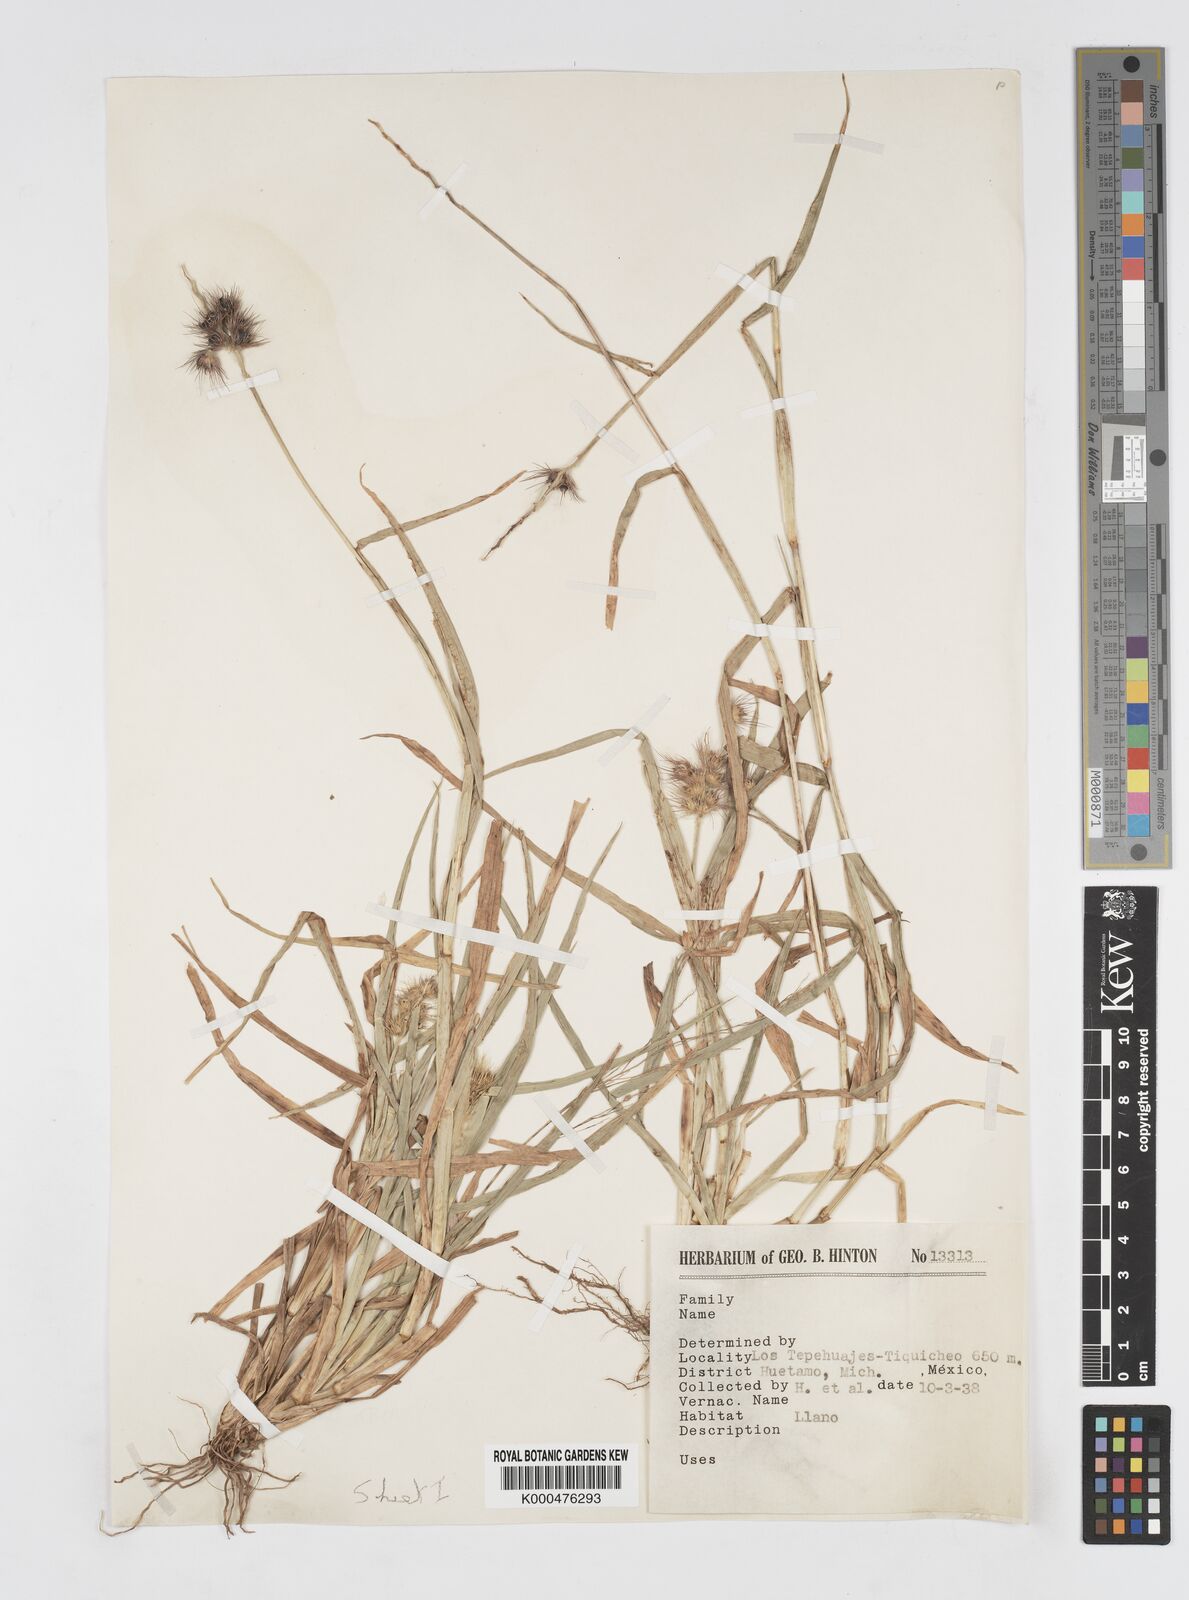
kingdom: Plantae
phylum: Tracheophyta
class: Liliopsida
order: Poales
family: Poaceae
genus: Cenchrus
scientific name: Cenchrus pilosus
